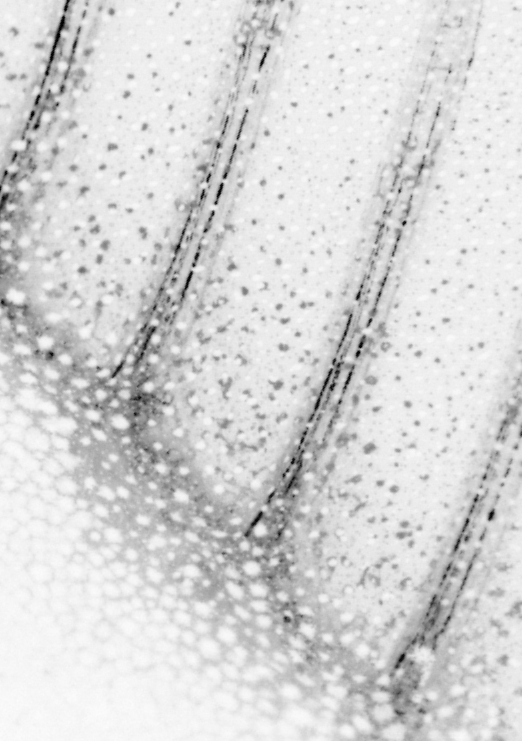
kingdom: Animalia
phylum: Chordata
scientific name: Chordata
